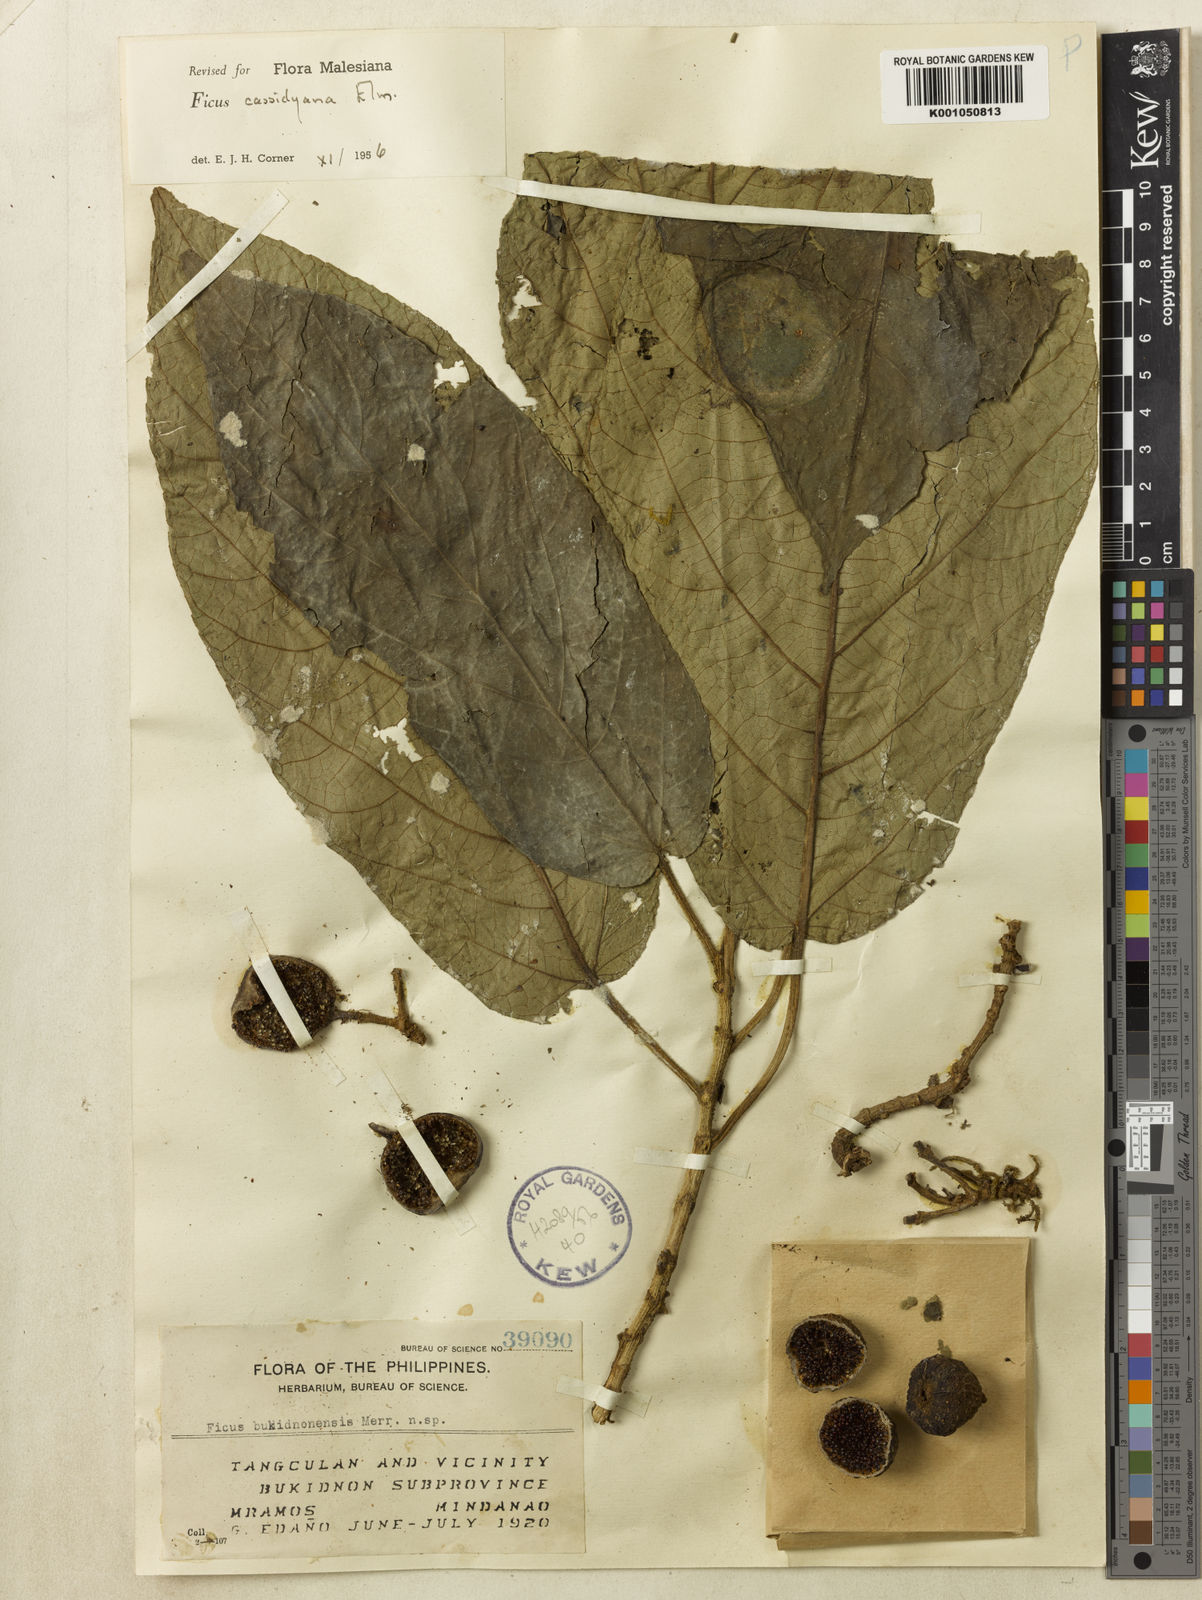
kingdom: Plantae
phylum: Tracheophyta
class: Magnoliopsida
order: Rosales
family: Moraceae
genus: Ficus
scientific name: Ficus cassidyana
